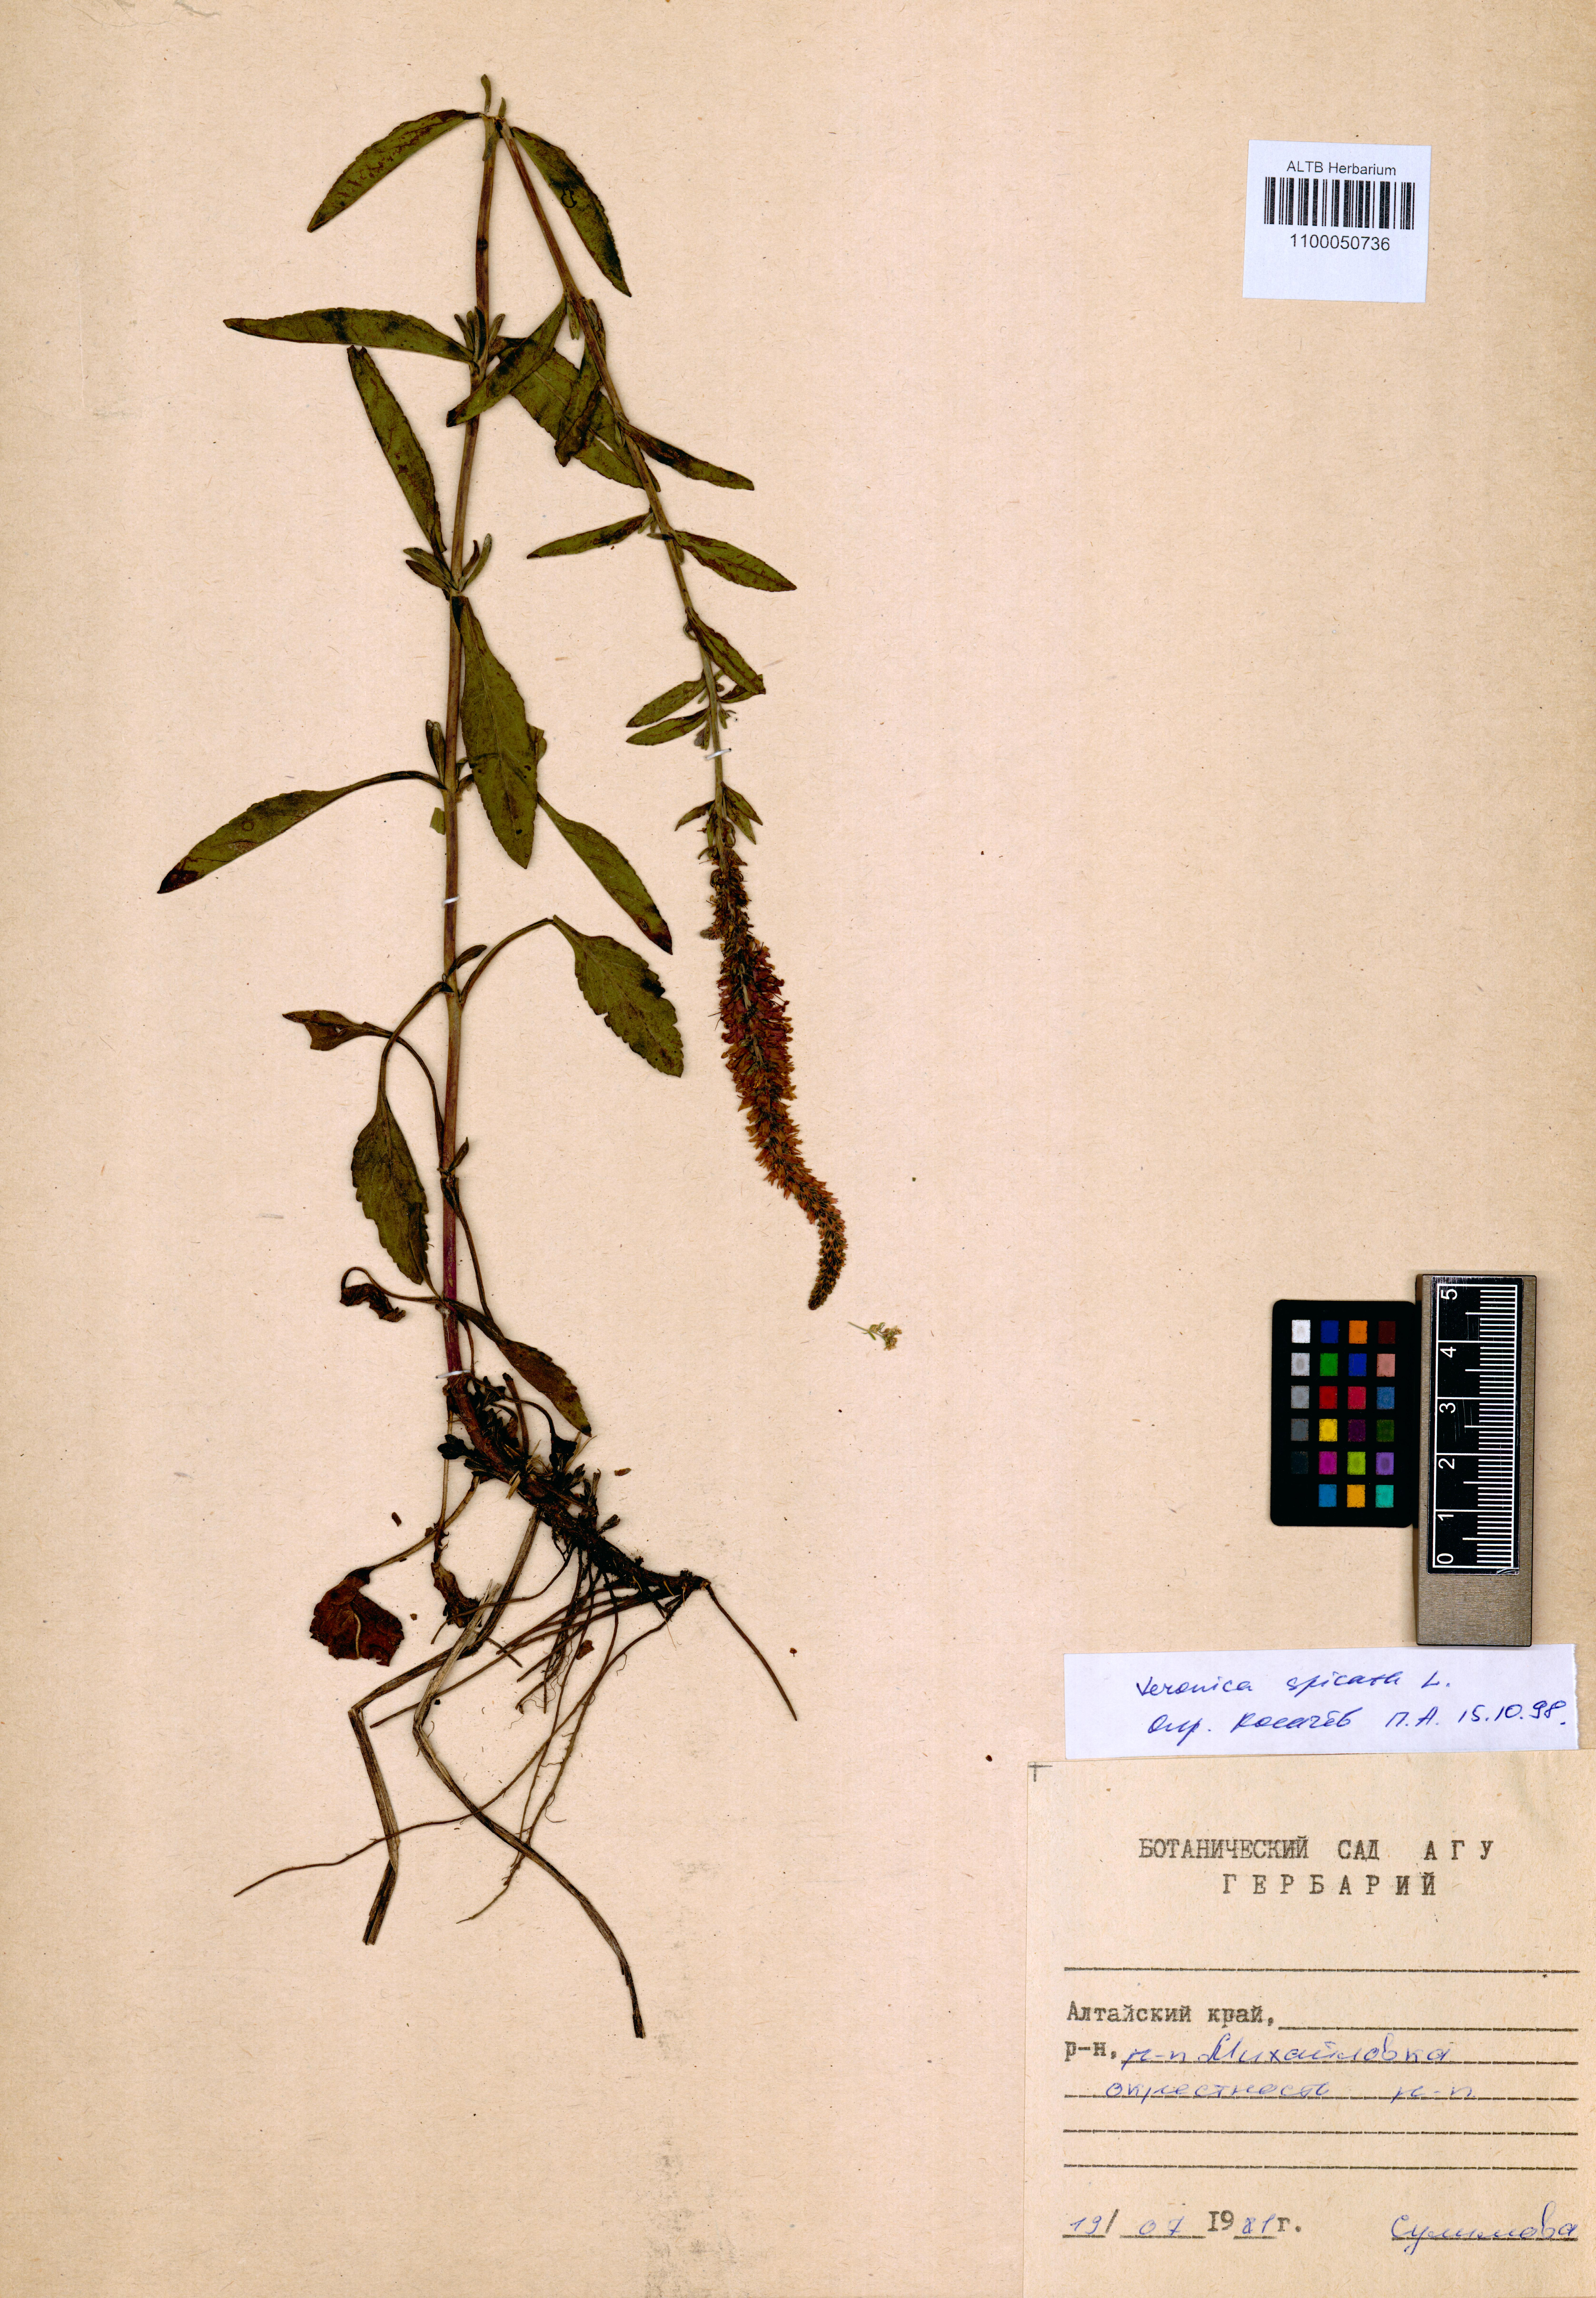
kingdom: Plantae
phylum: Tracheophyta
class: Magnoliopsida
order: Lamiales
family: Plantaginaceae
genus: Veronica
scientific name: Veronica spicata
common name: Spiked speedwell
